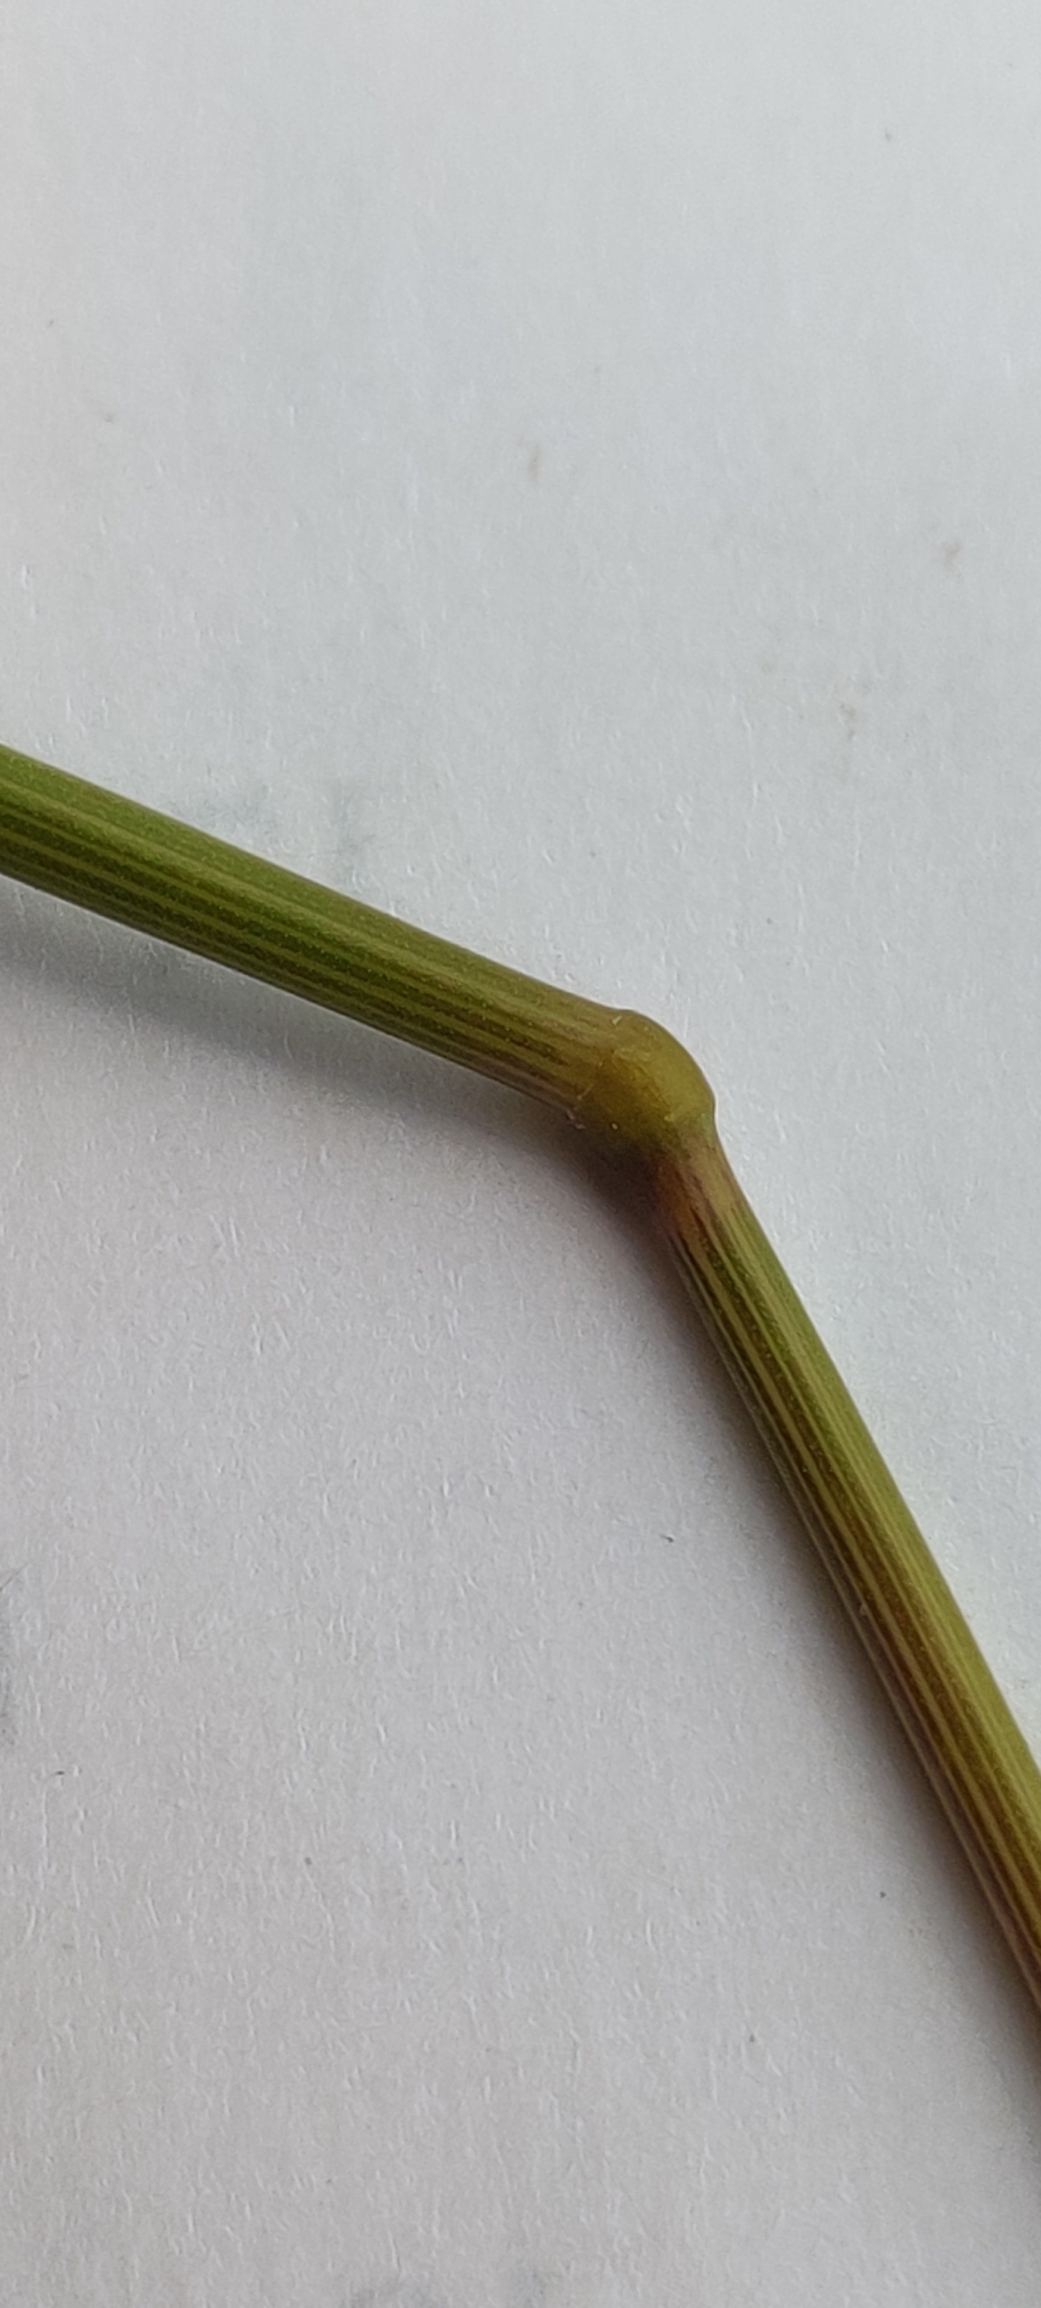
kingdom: Plantae
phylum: Tracheophyta
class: Liliopsida
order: Poales
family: Poaceae
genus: Elymus
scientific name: Elymus repens
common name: Almindelig kvik
